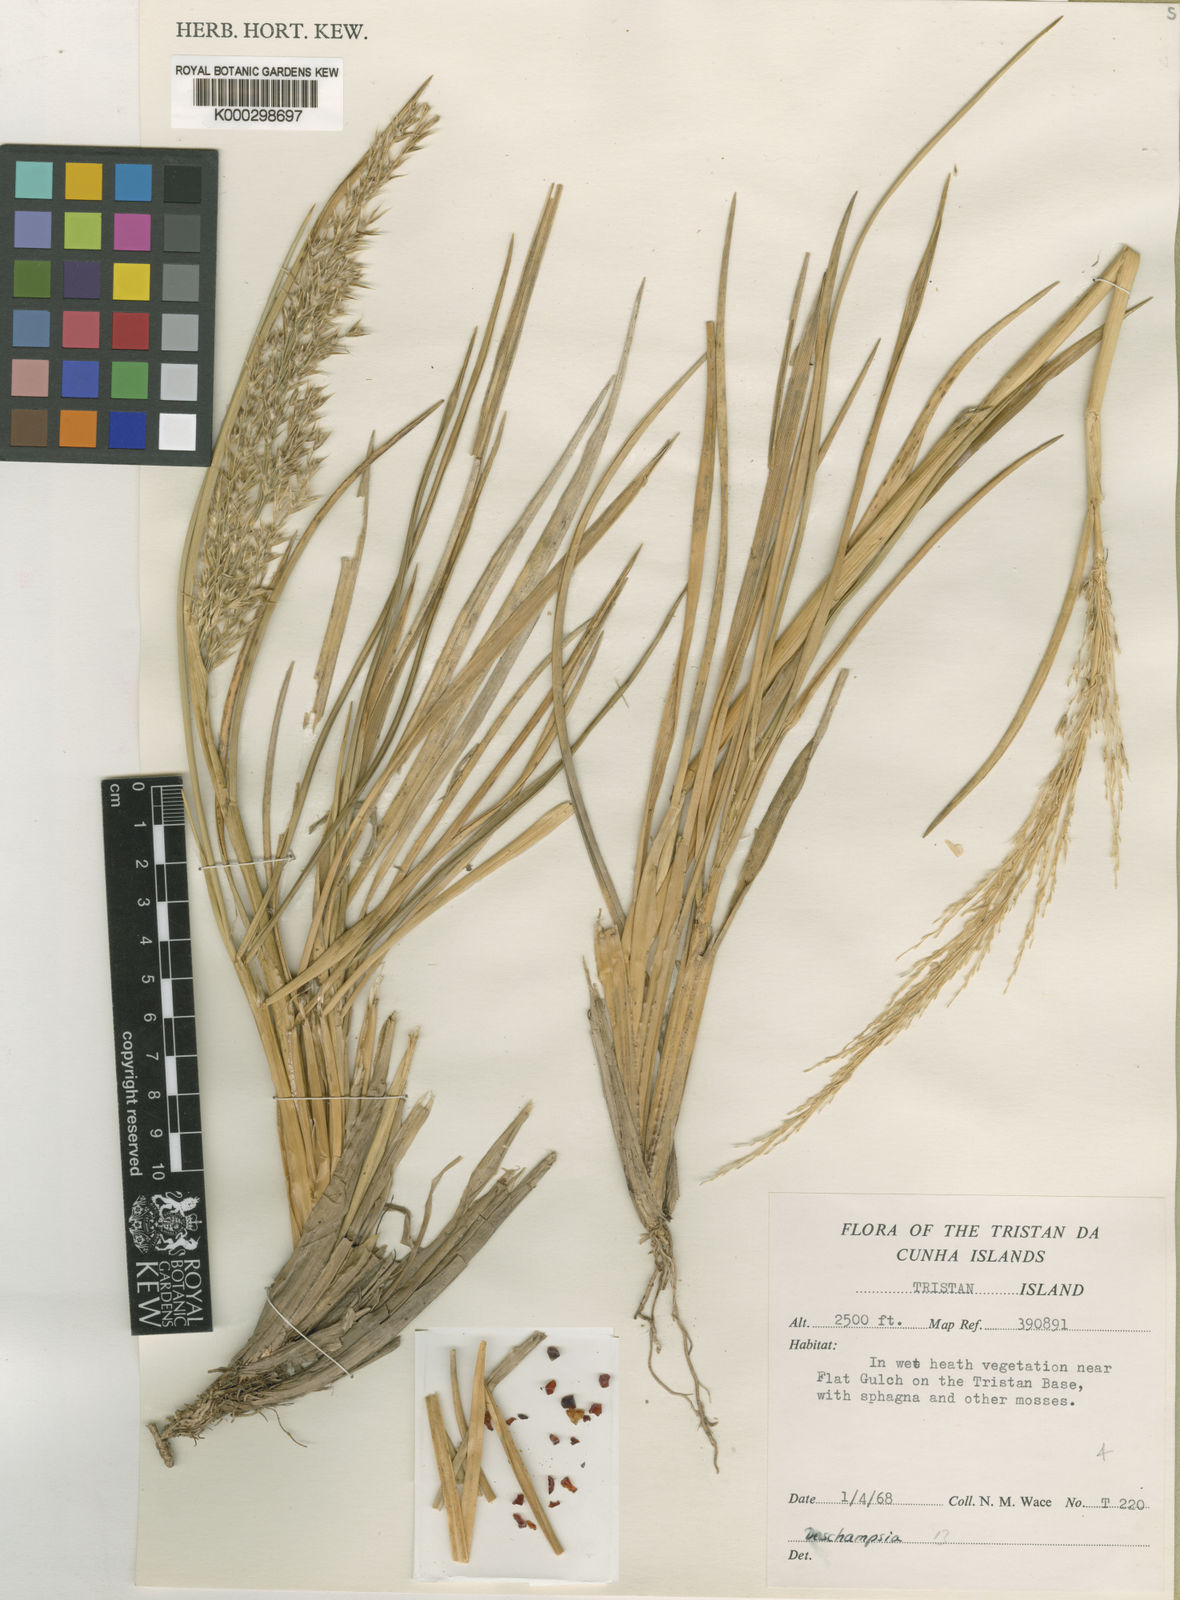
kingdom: Plantae
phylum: Tracheophyta
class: Liliopsida
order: Poales
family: Poaceae
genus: Deschampsia
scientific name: Deschampsia
